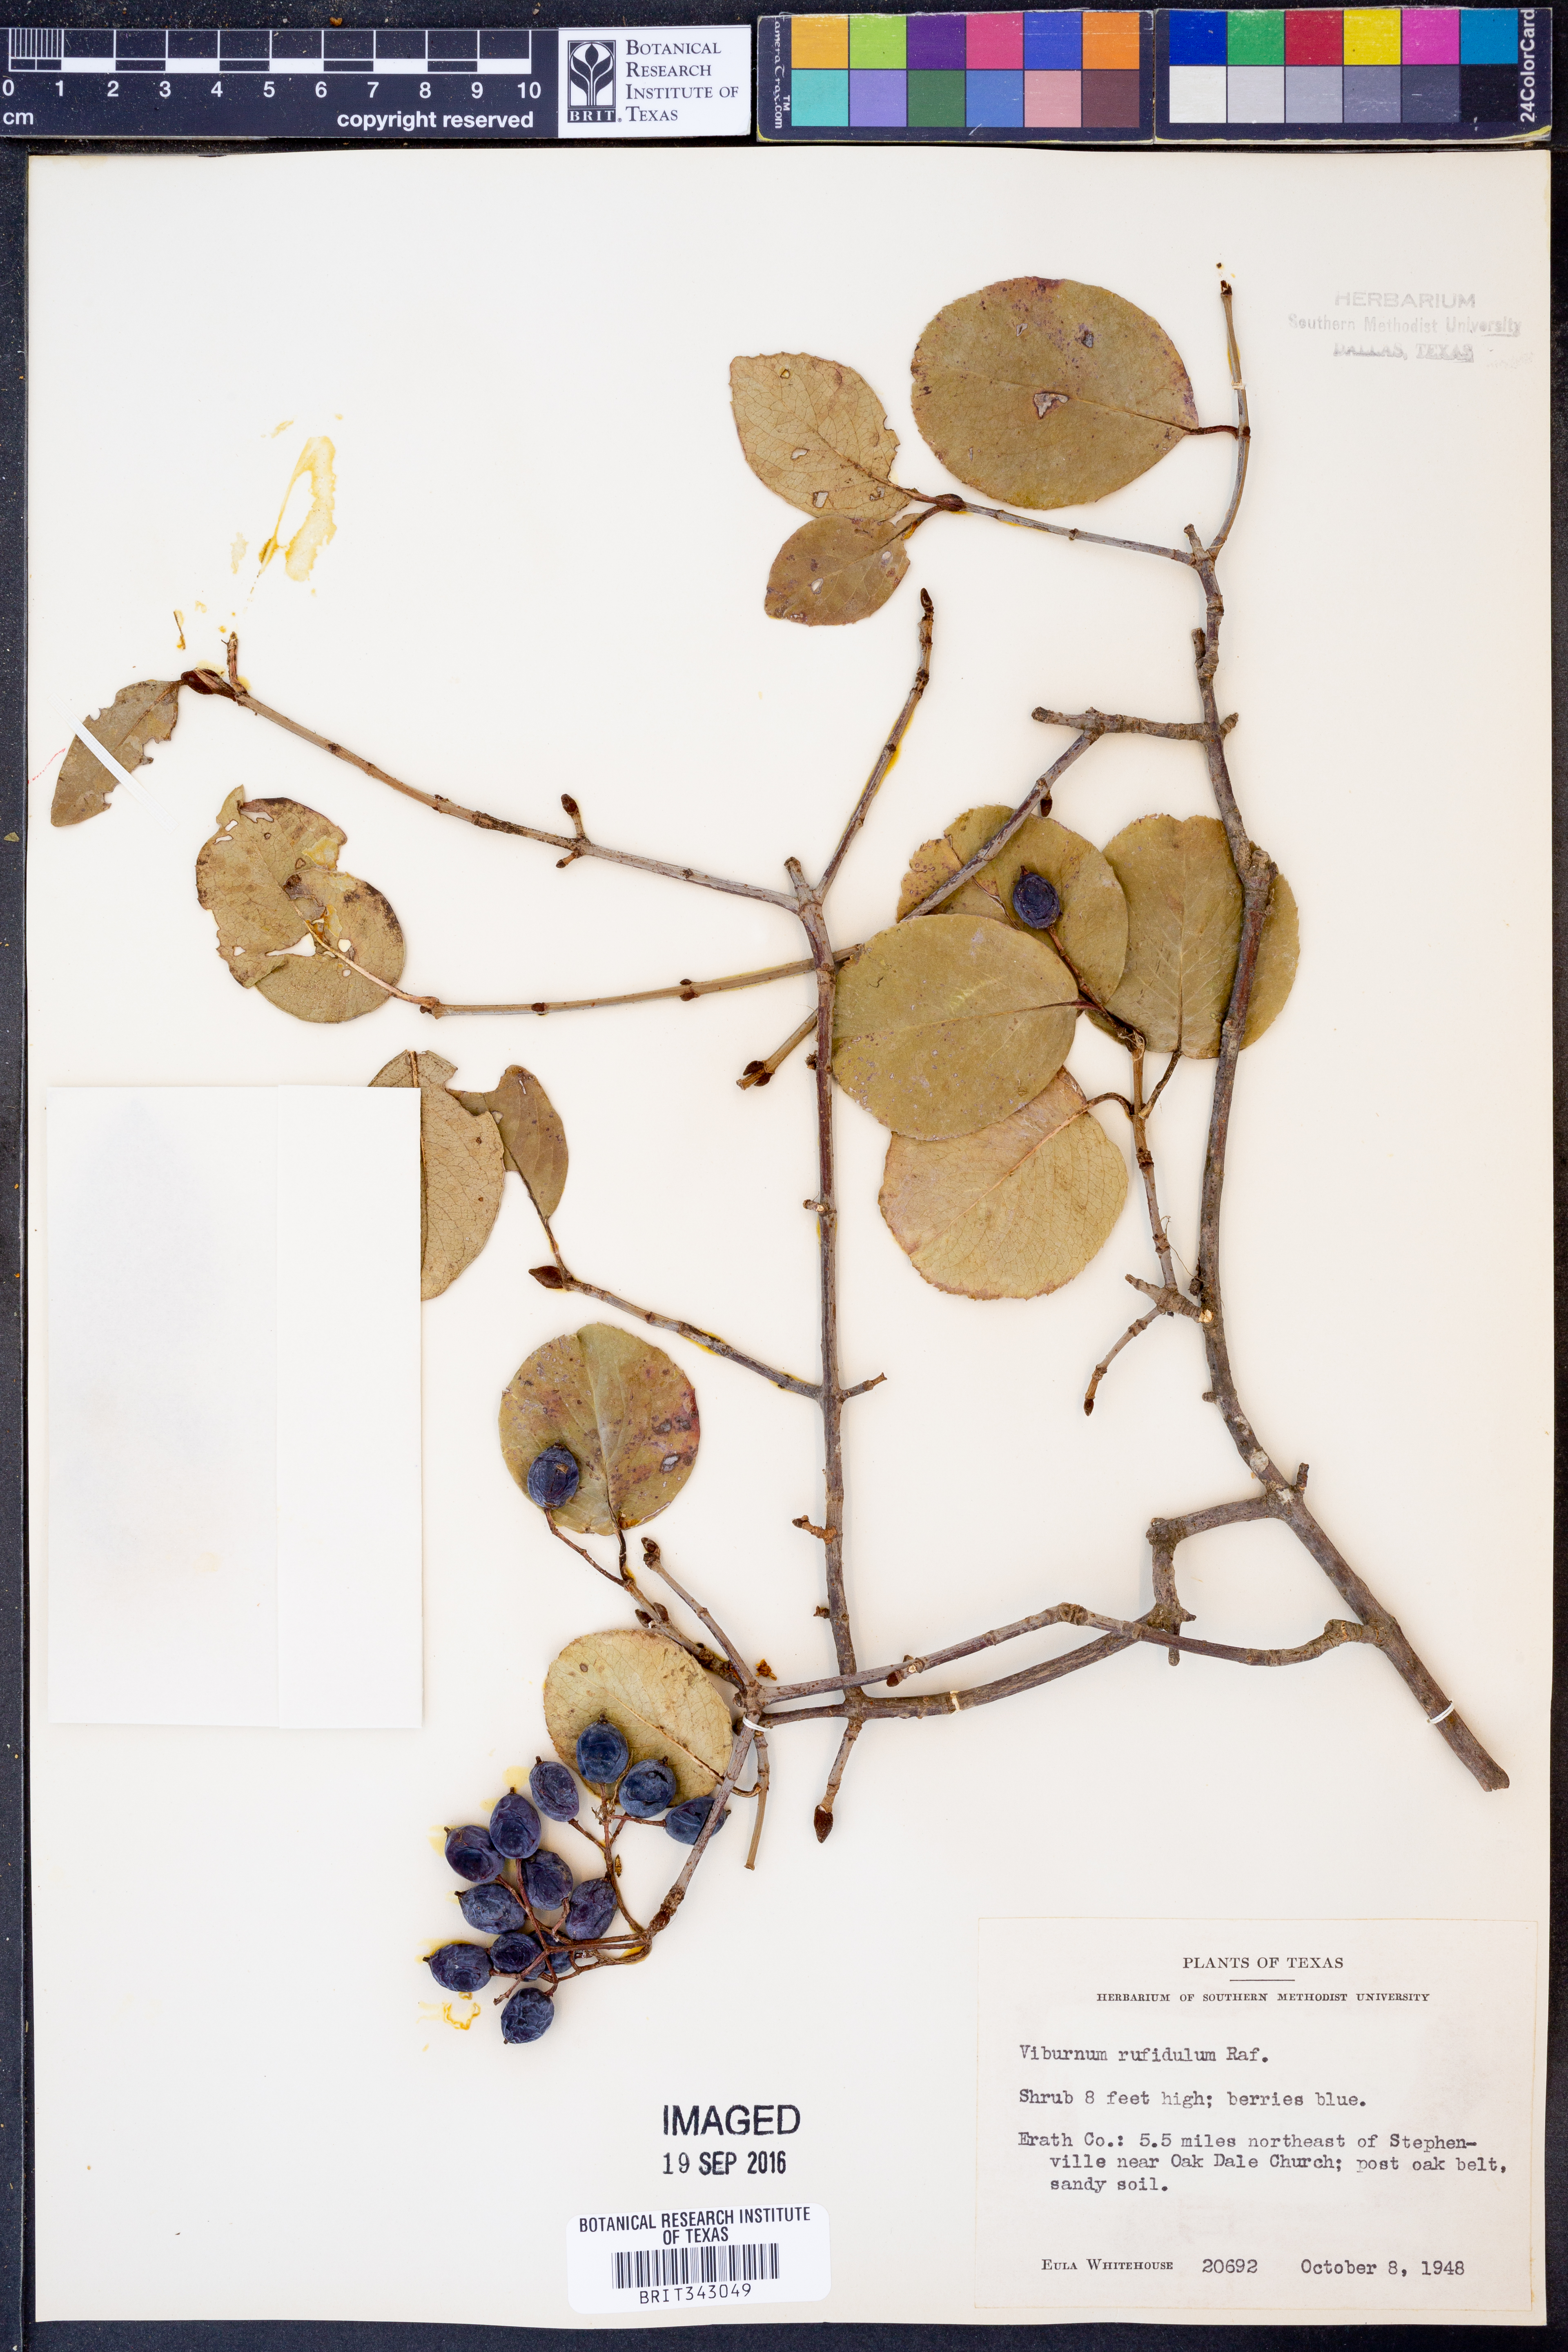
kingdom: Plantae
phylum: Tracheophyta
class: Magnoliopsida
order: Dipsacales
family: Viburnaceae
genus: Viburnum
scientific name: Viburnum rufidulum
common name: Blue haw
